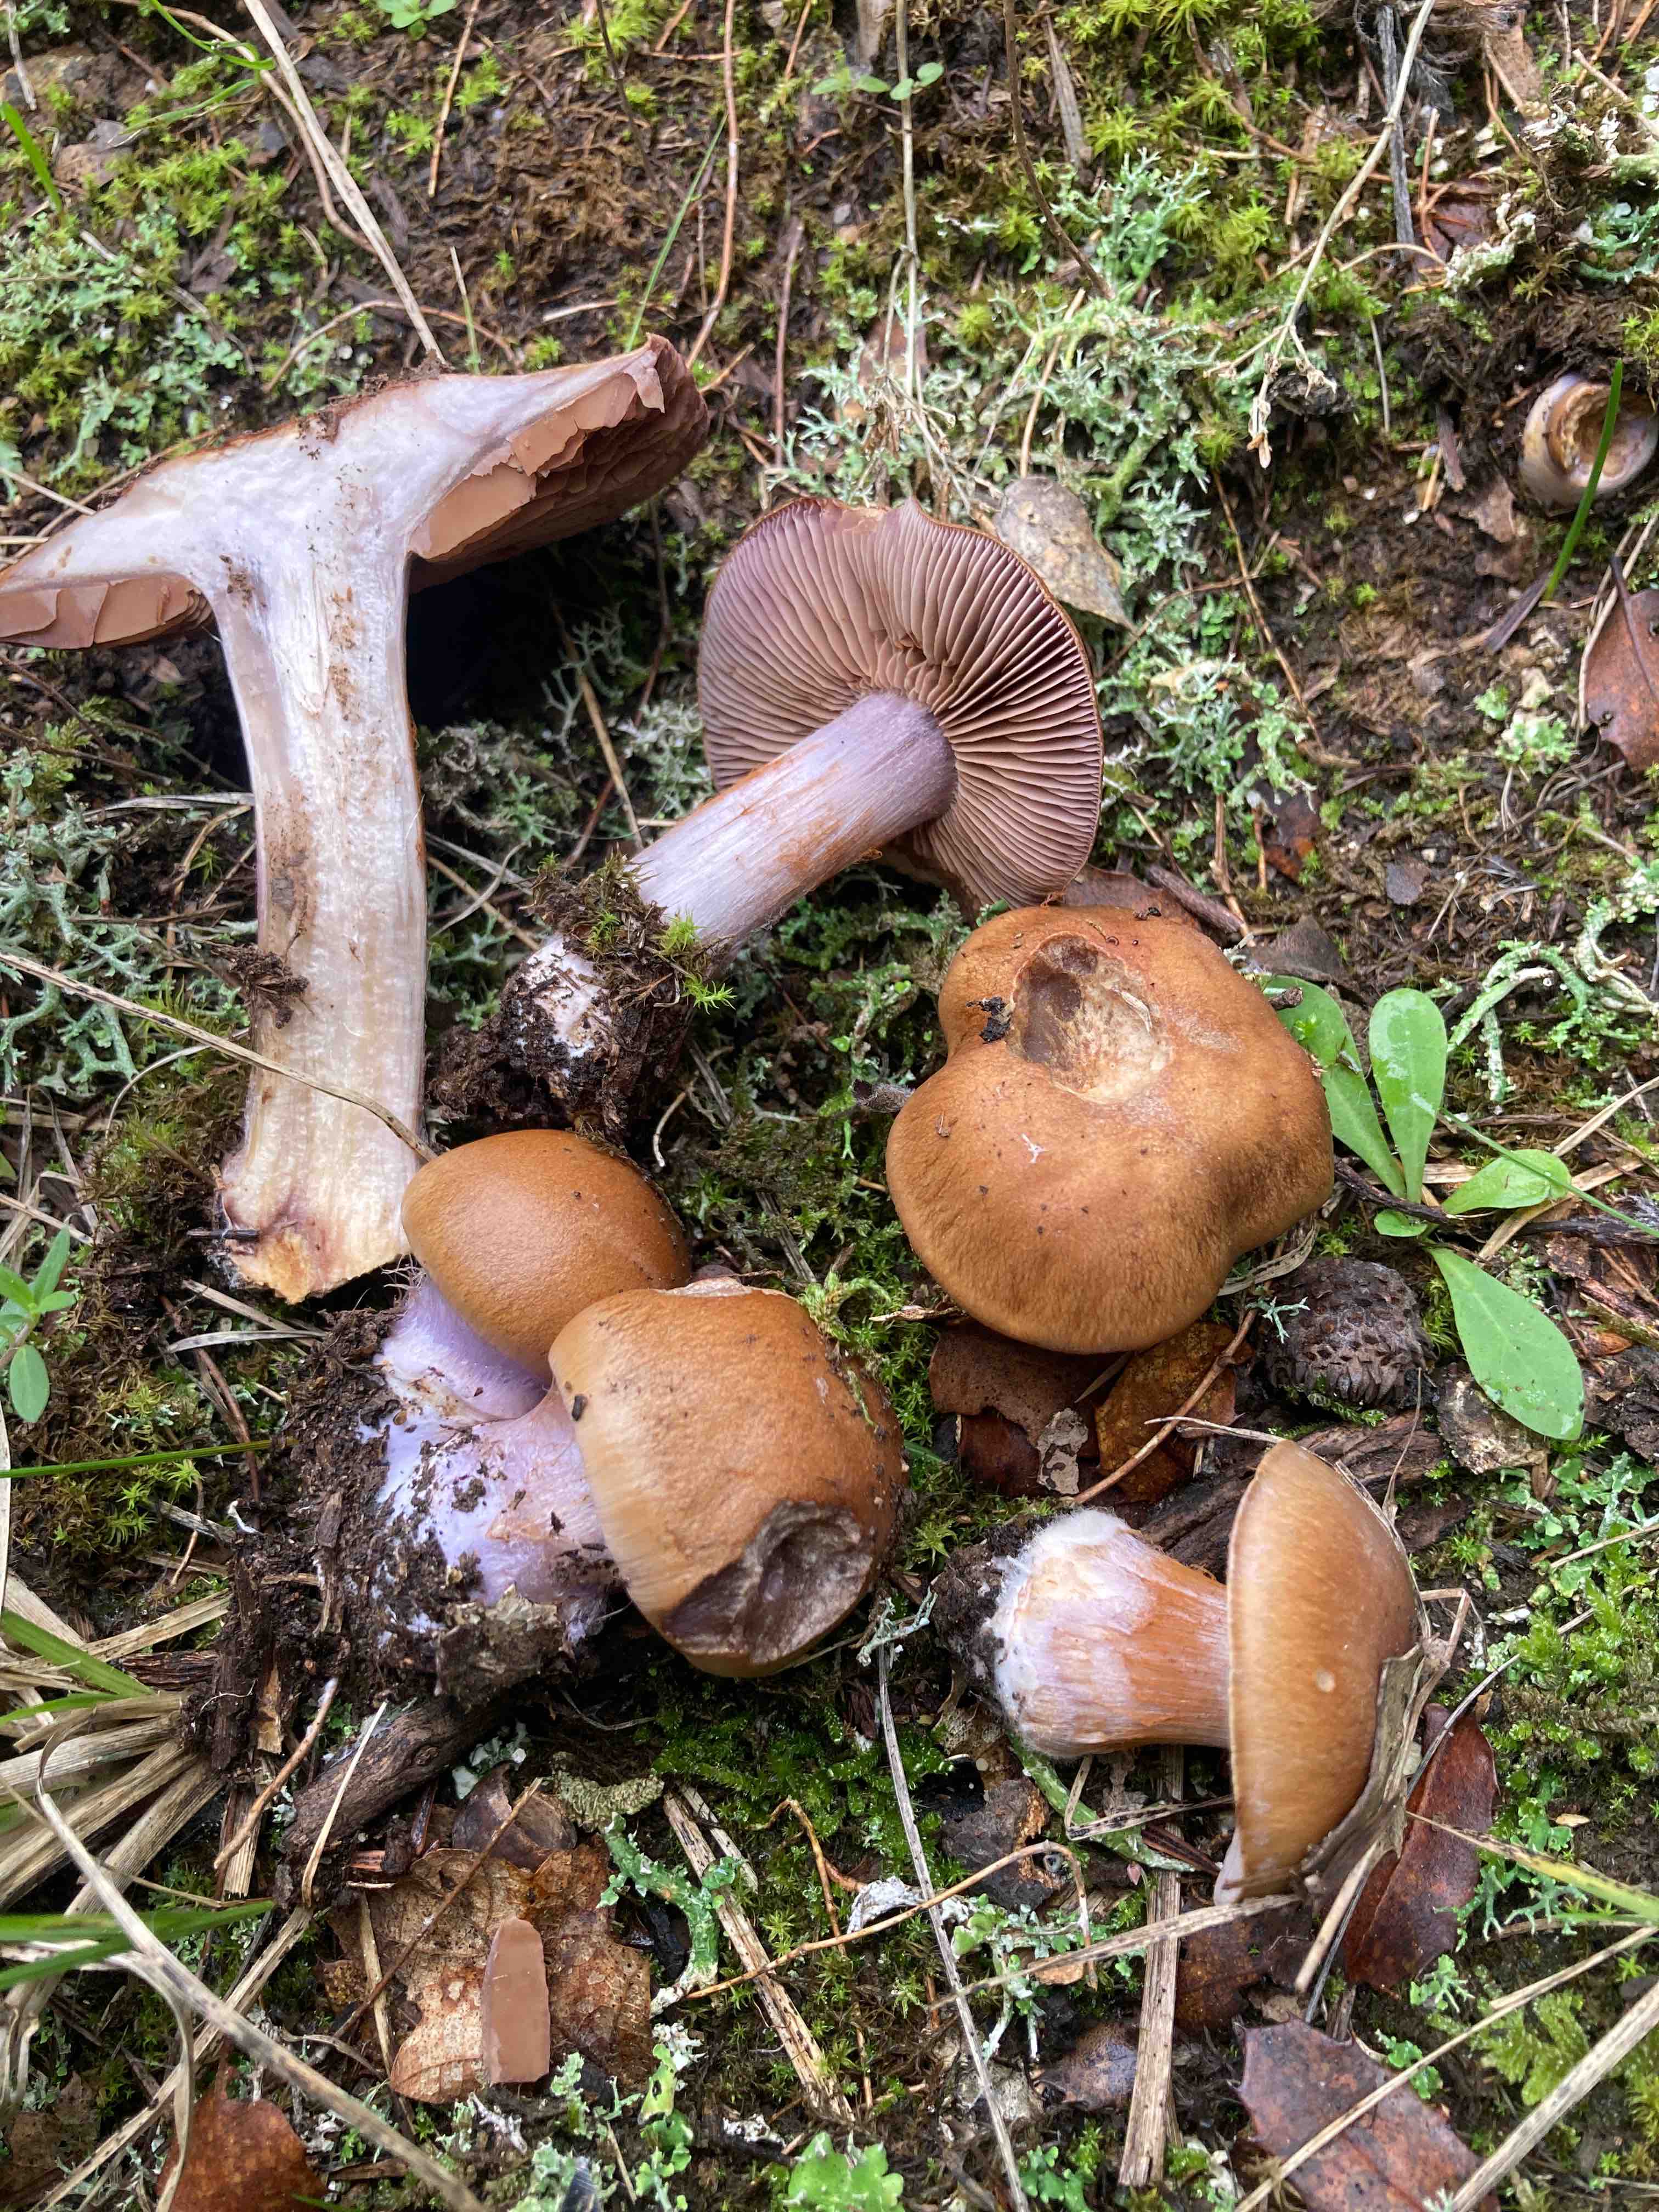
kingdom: Fungi
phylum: Basidiomycota
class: Agaricomycetes
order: Agaricales
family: Cortinariaceae
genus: Thaxterogaster
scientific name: Thaxterogaster subpurpurascens
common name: mørkblånende slørhat
